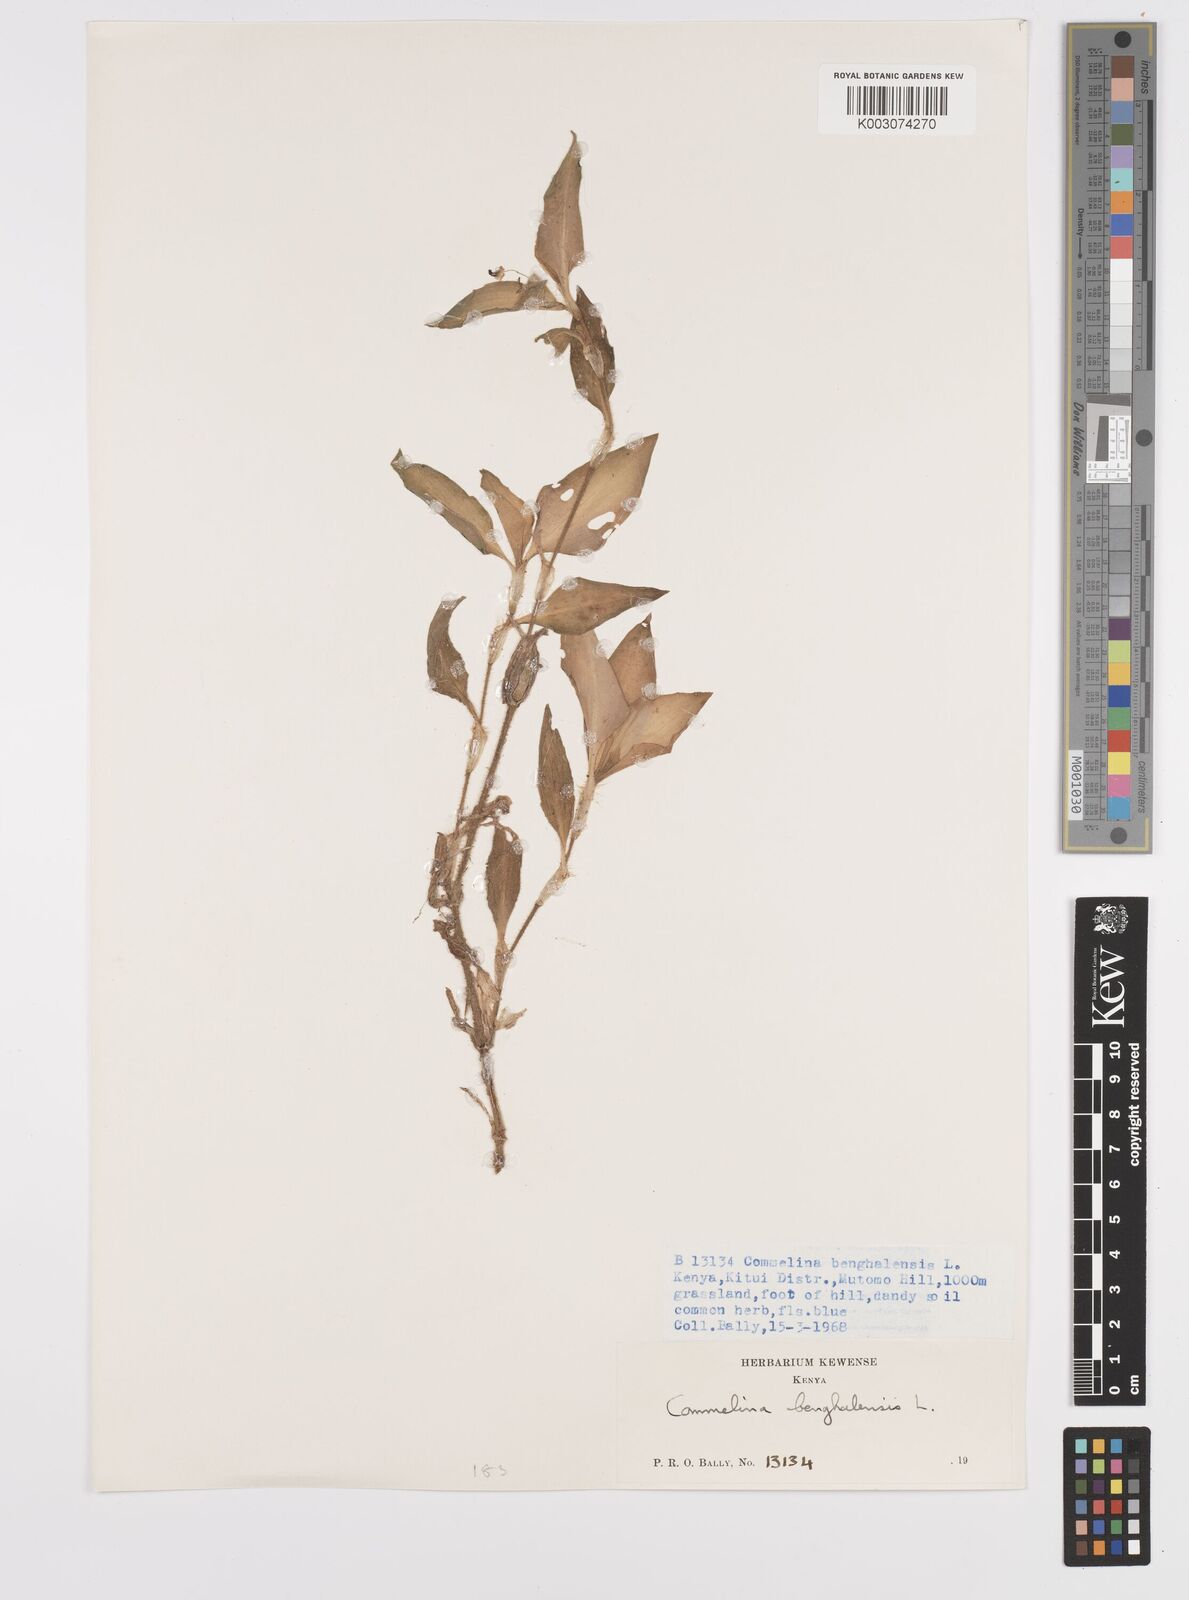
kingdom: Plantae
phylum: Tracheophyta
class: Liliopsida
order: Commelinales
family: Commelinaceae
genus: Commelina
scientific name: Commelina benghalensis
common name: Jio
